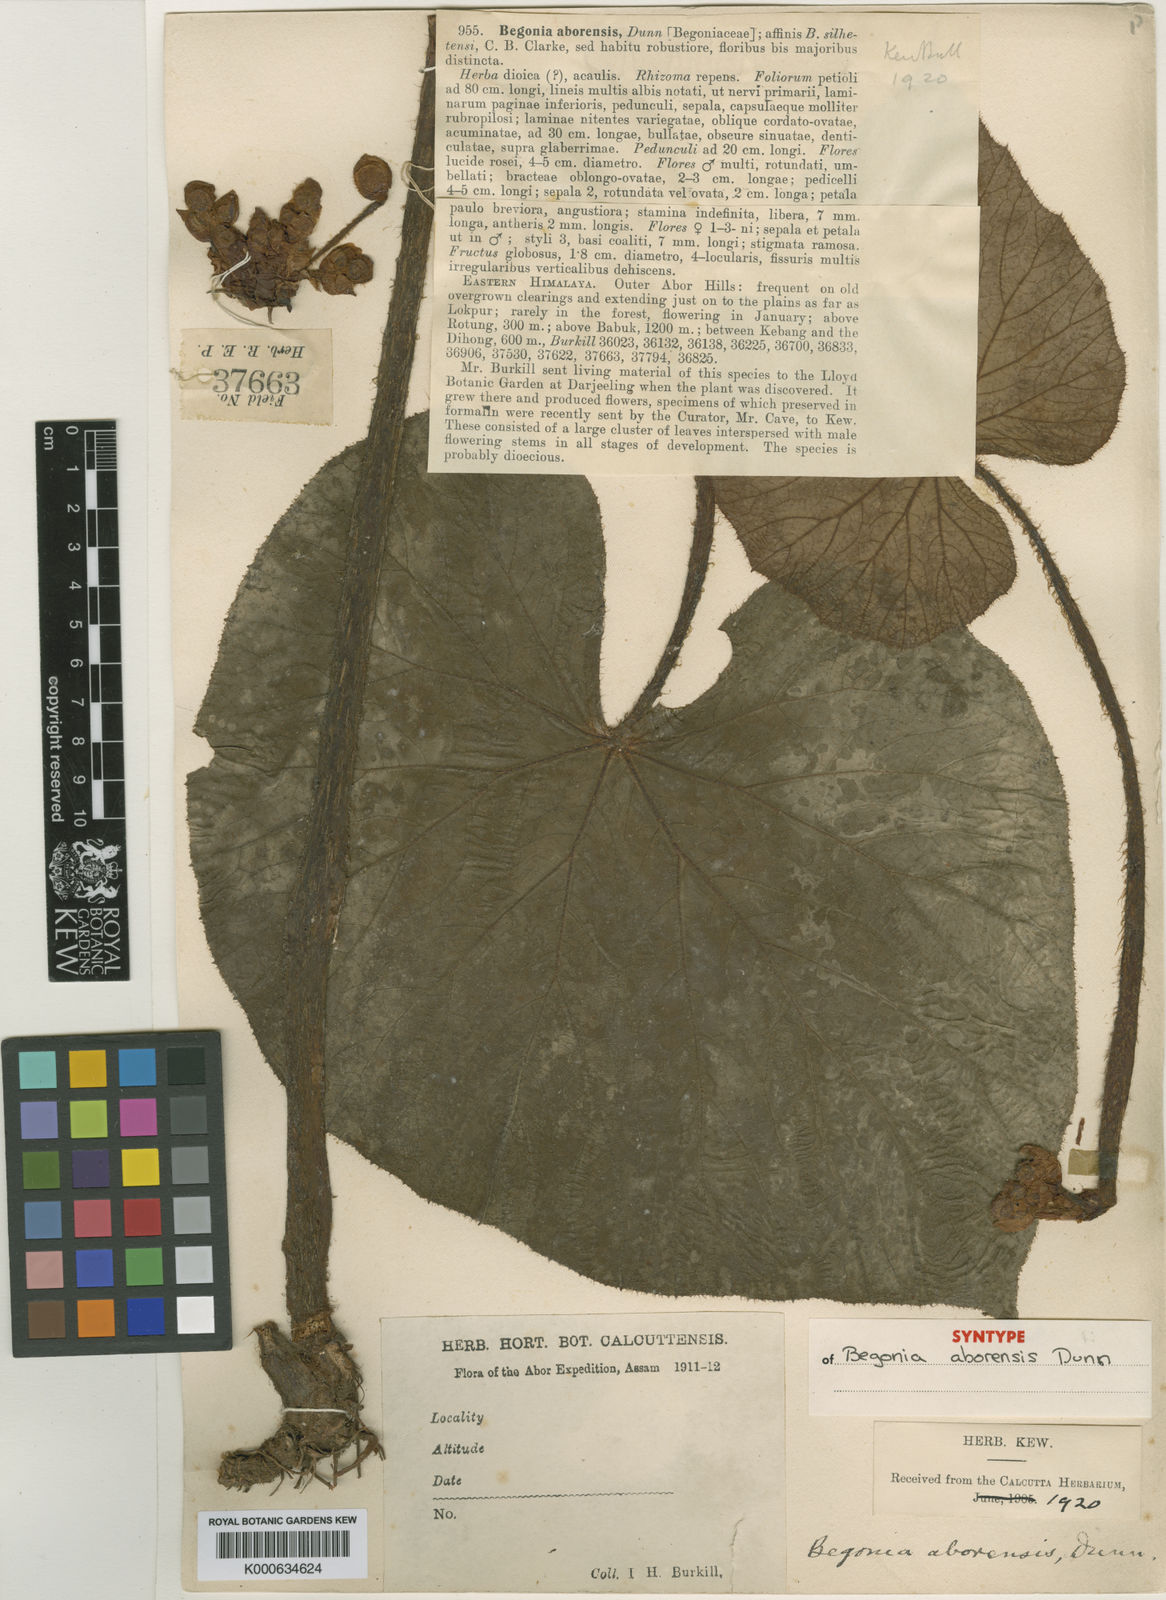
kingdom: Plantae
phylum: Tracheophyta
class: Magnoliopsida
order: Cucurbitales
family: Begoniaceae
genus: Begonia
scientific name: Begonia silletensis
